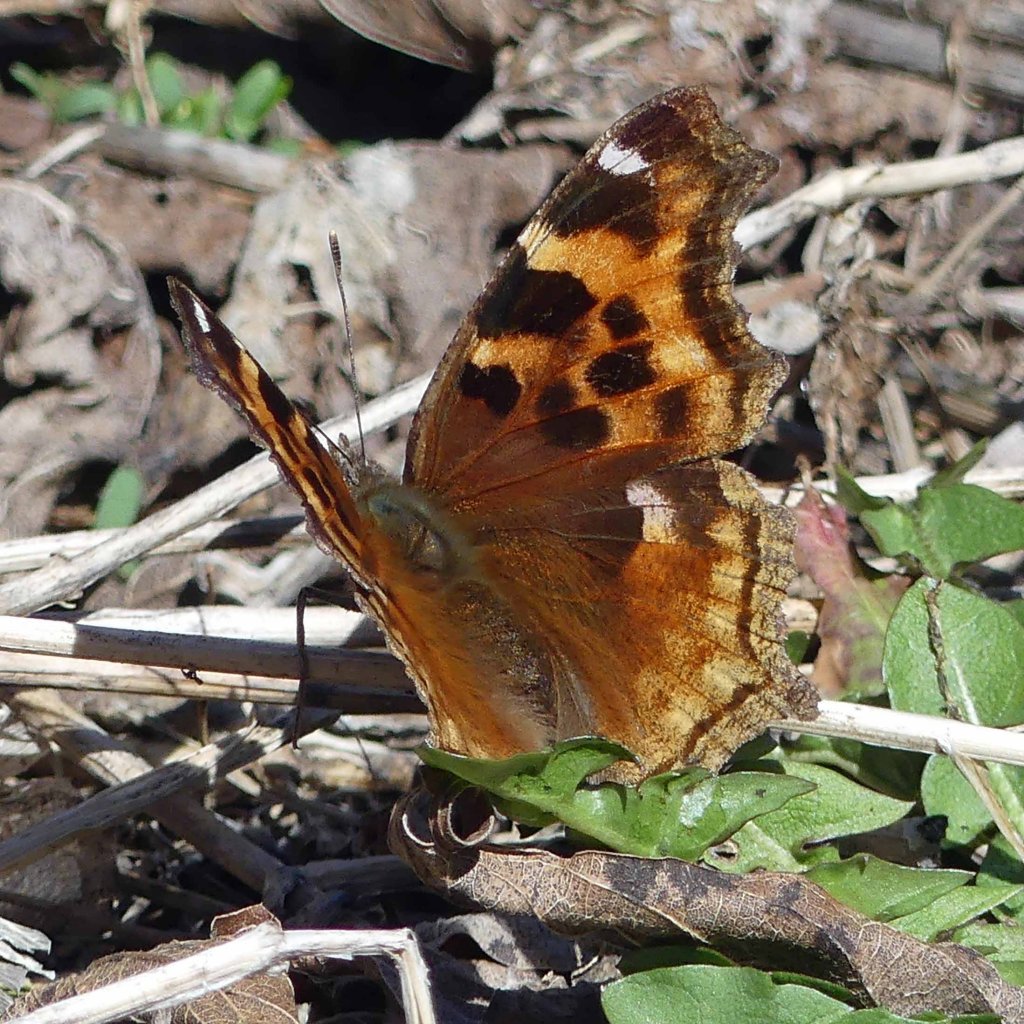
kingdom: Animalia
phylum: Arthropoda
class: Insecta
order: Lepidoptera
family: Nymphalidae
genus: Polygonia
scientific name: Polygonia vaualbum
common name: Compton Tortoiseshell
